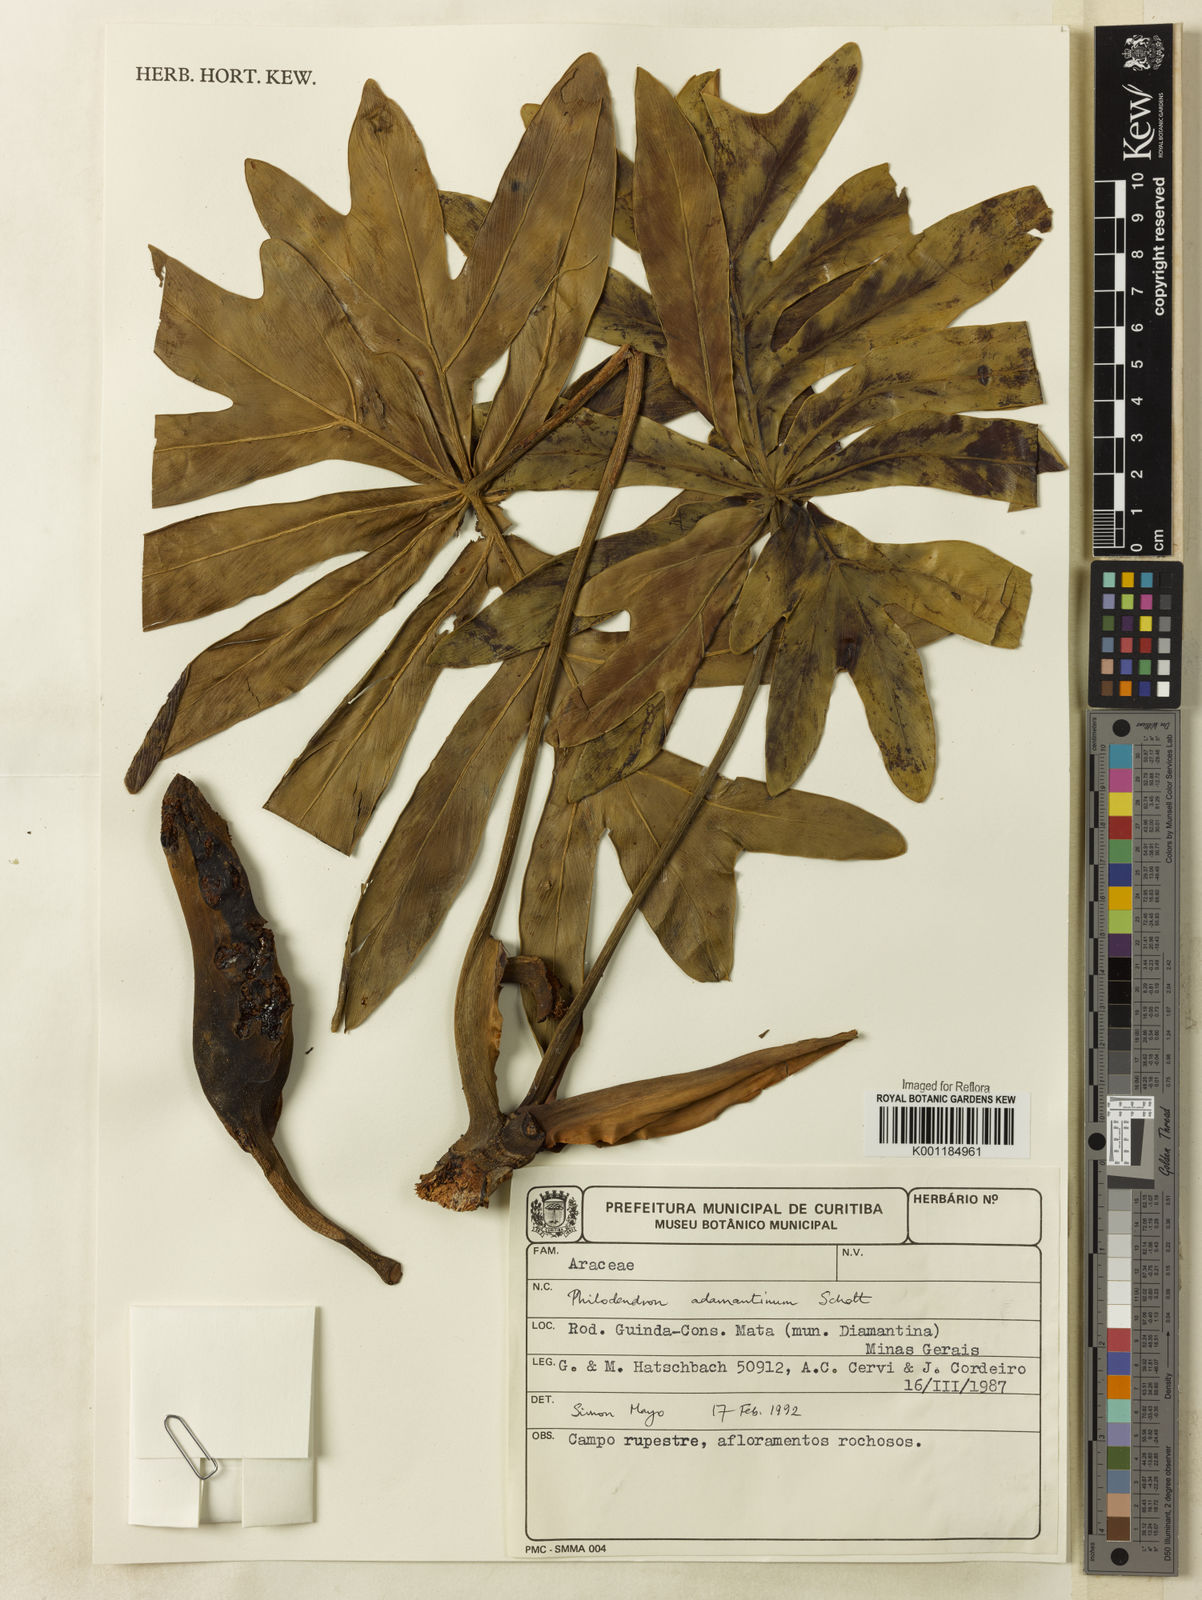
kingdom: Plantae
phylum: Tracheophyta
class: Liliopsida
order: Alismatales
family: Araceae
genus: Thaumatophyllum
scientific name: Thaumatophyllum adamantinum
